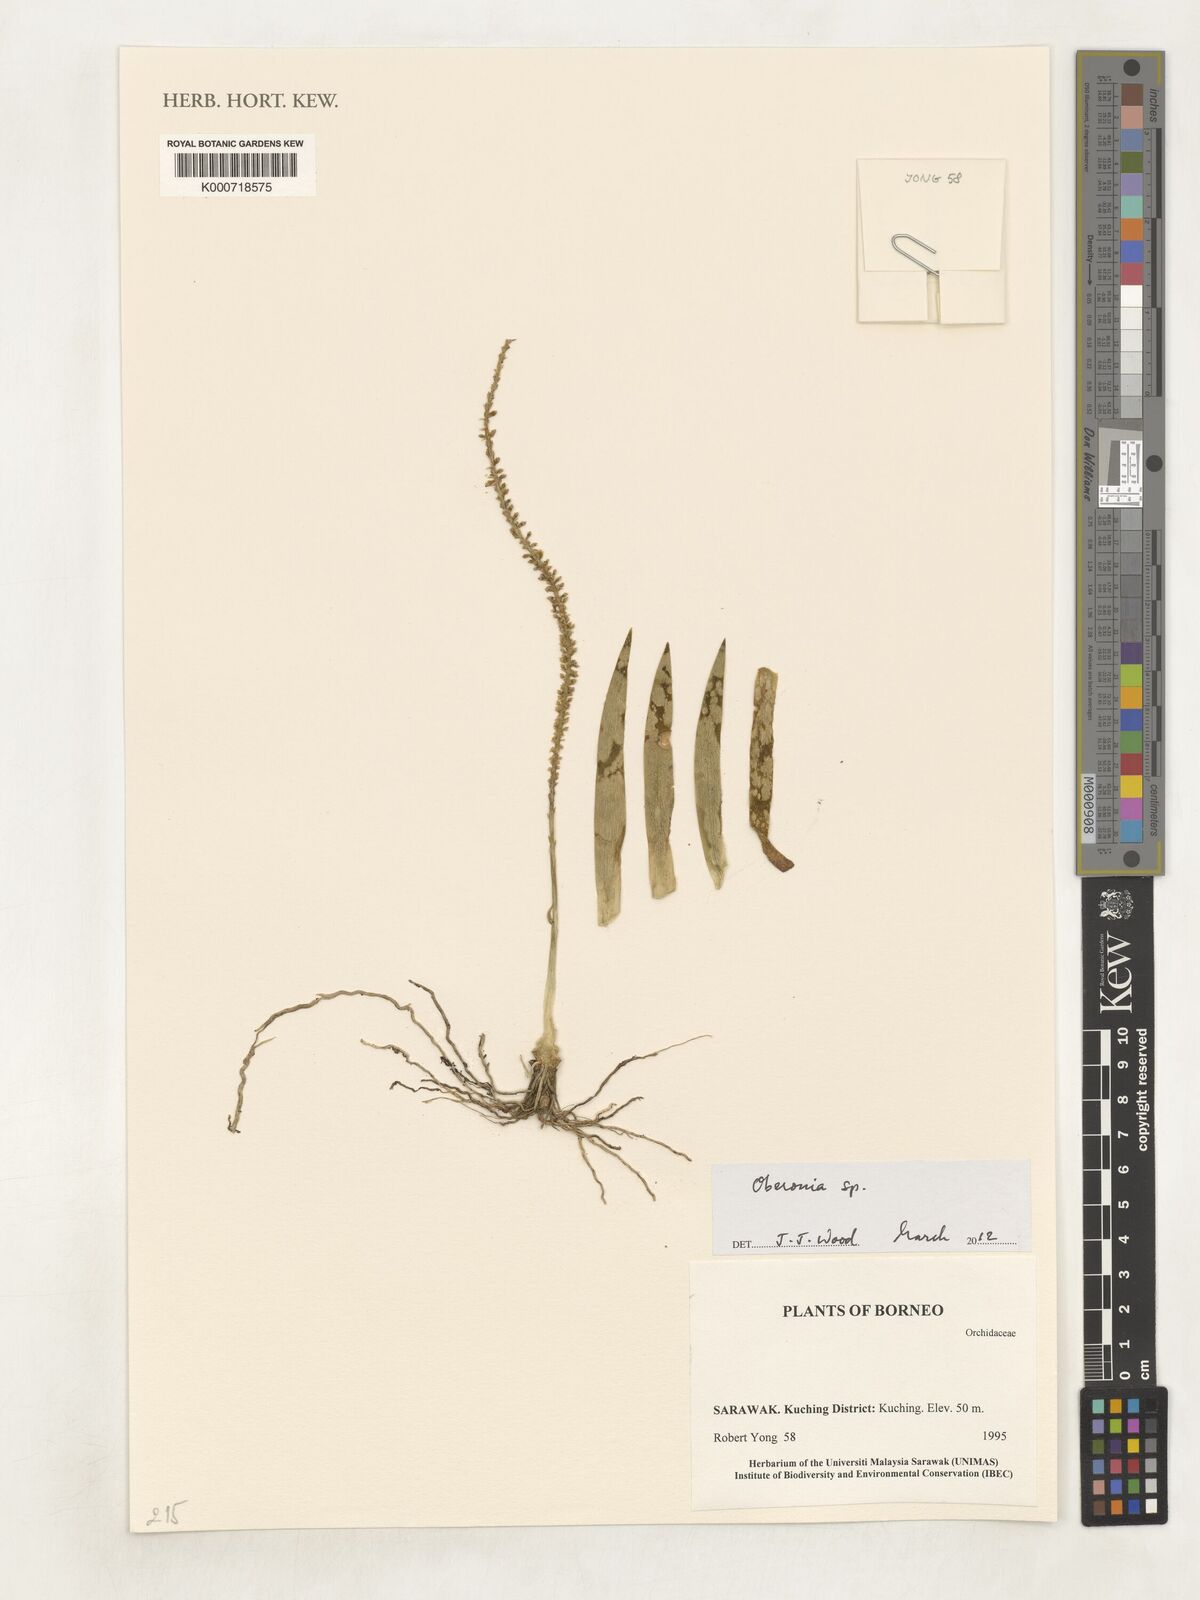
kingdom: Plantae
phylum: Tracheophyta
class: Liliopsida
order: Asparagales
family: Orchidaceae
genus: Oberonia
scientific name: Oberonia
